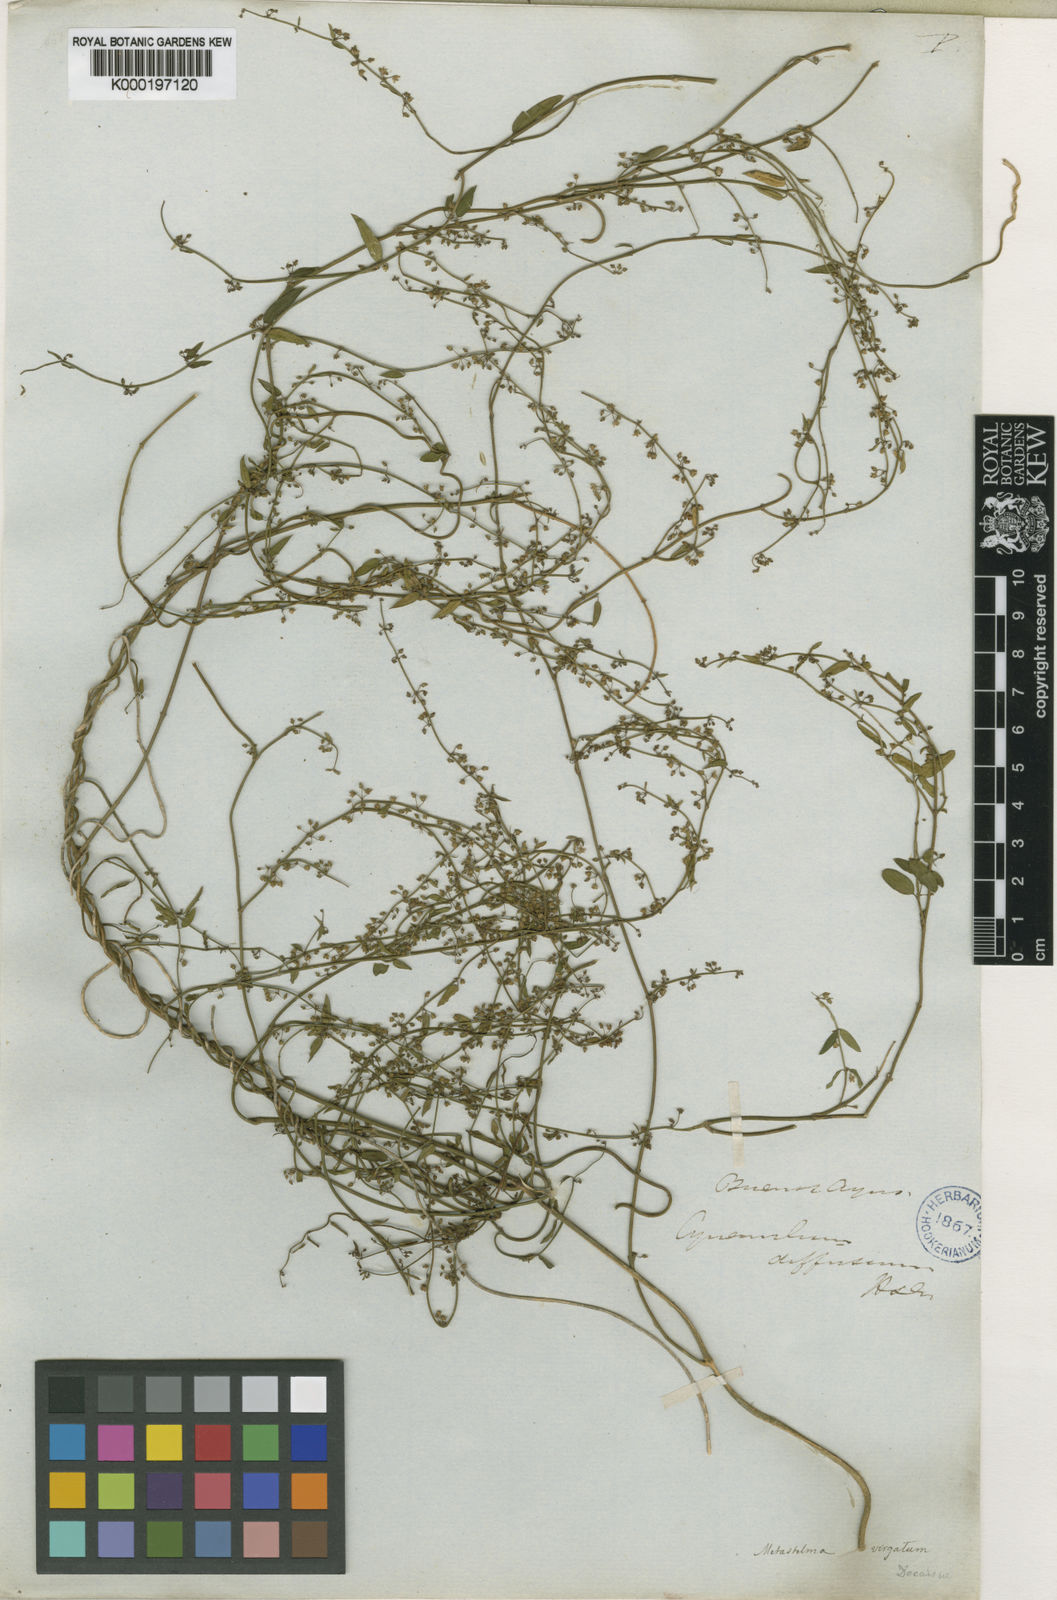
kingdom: Plantae
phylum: Tracheophyta
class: Magnoliopsida
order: Gentianales
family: Apocynaceae
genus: Orthosia
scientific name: Orthosia virgata
